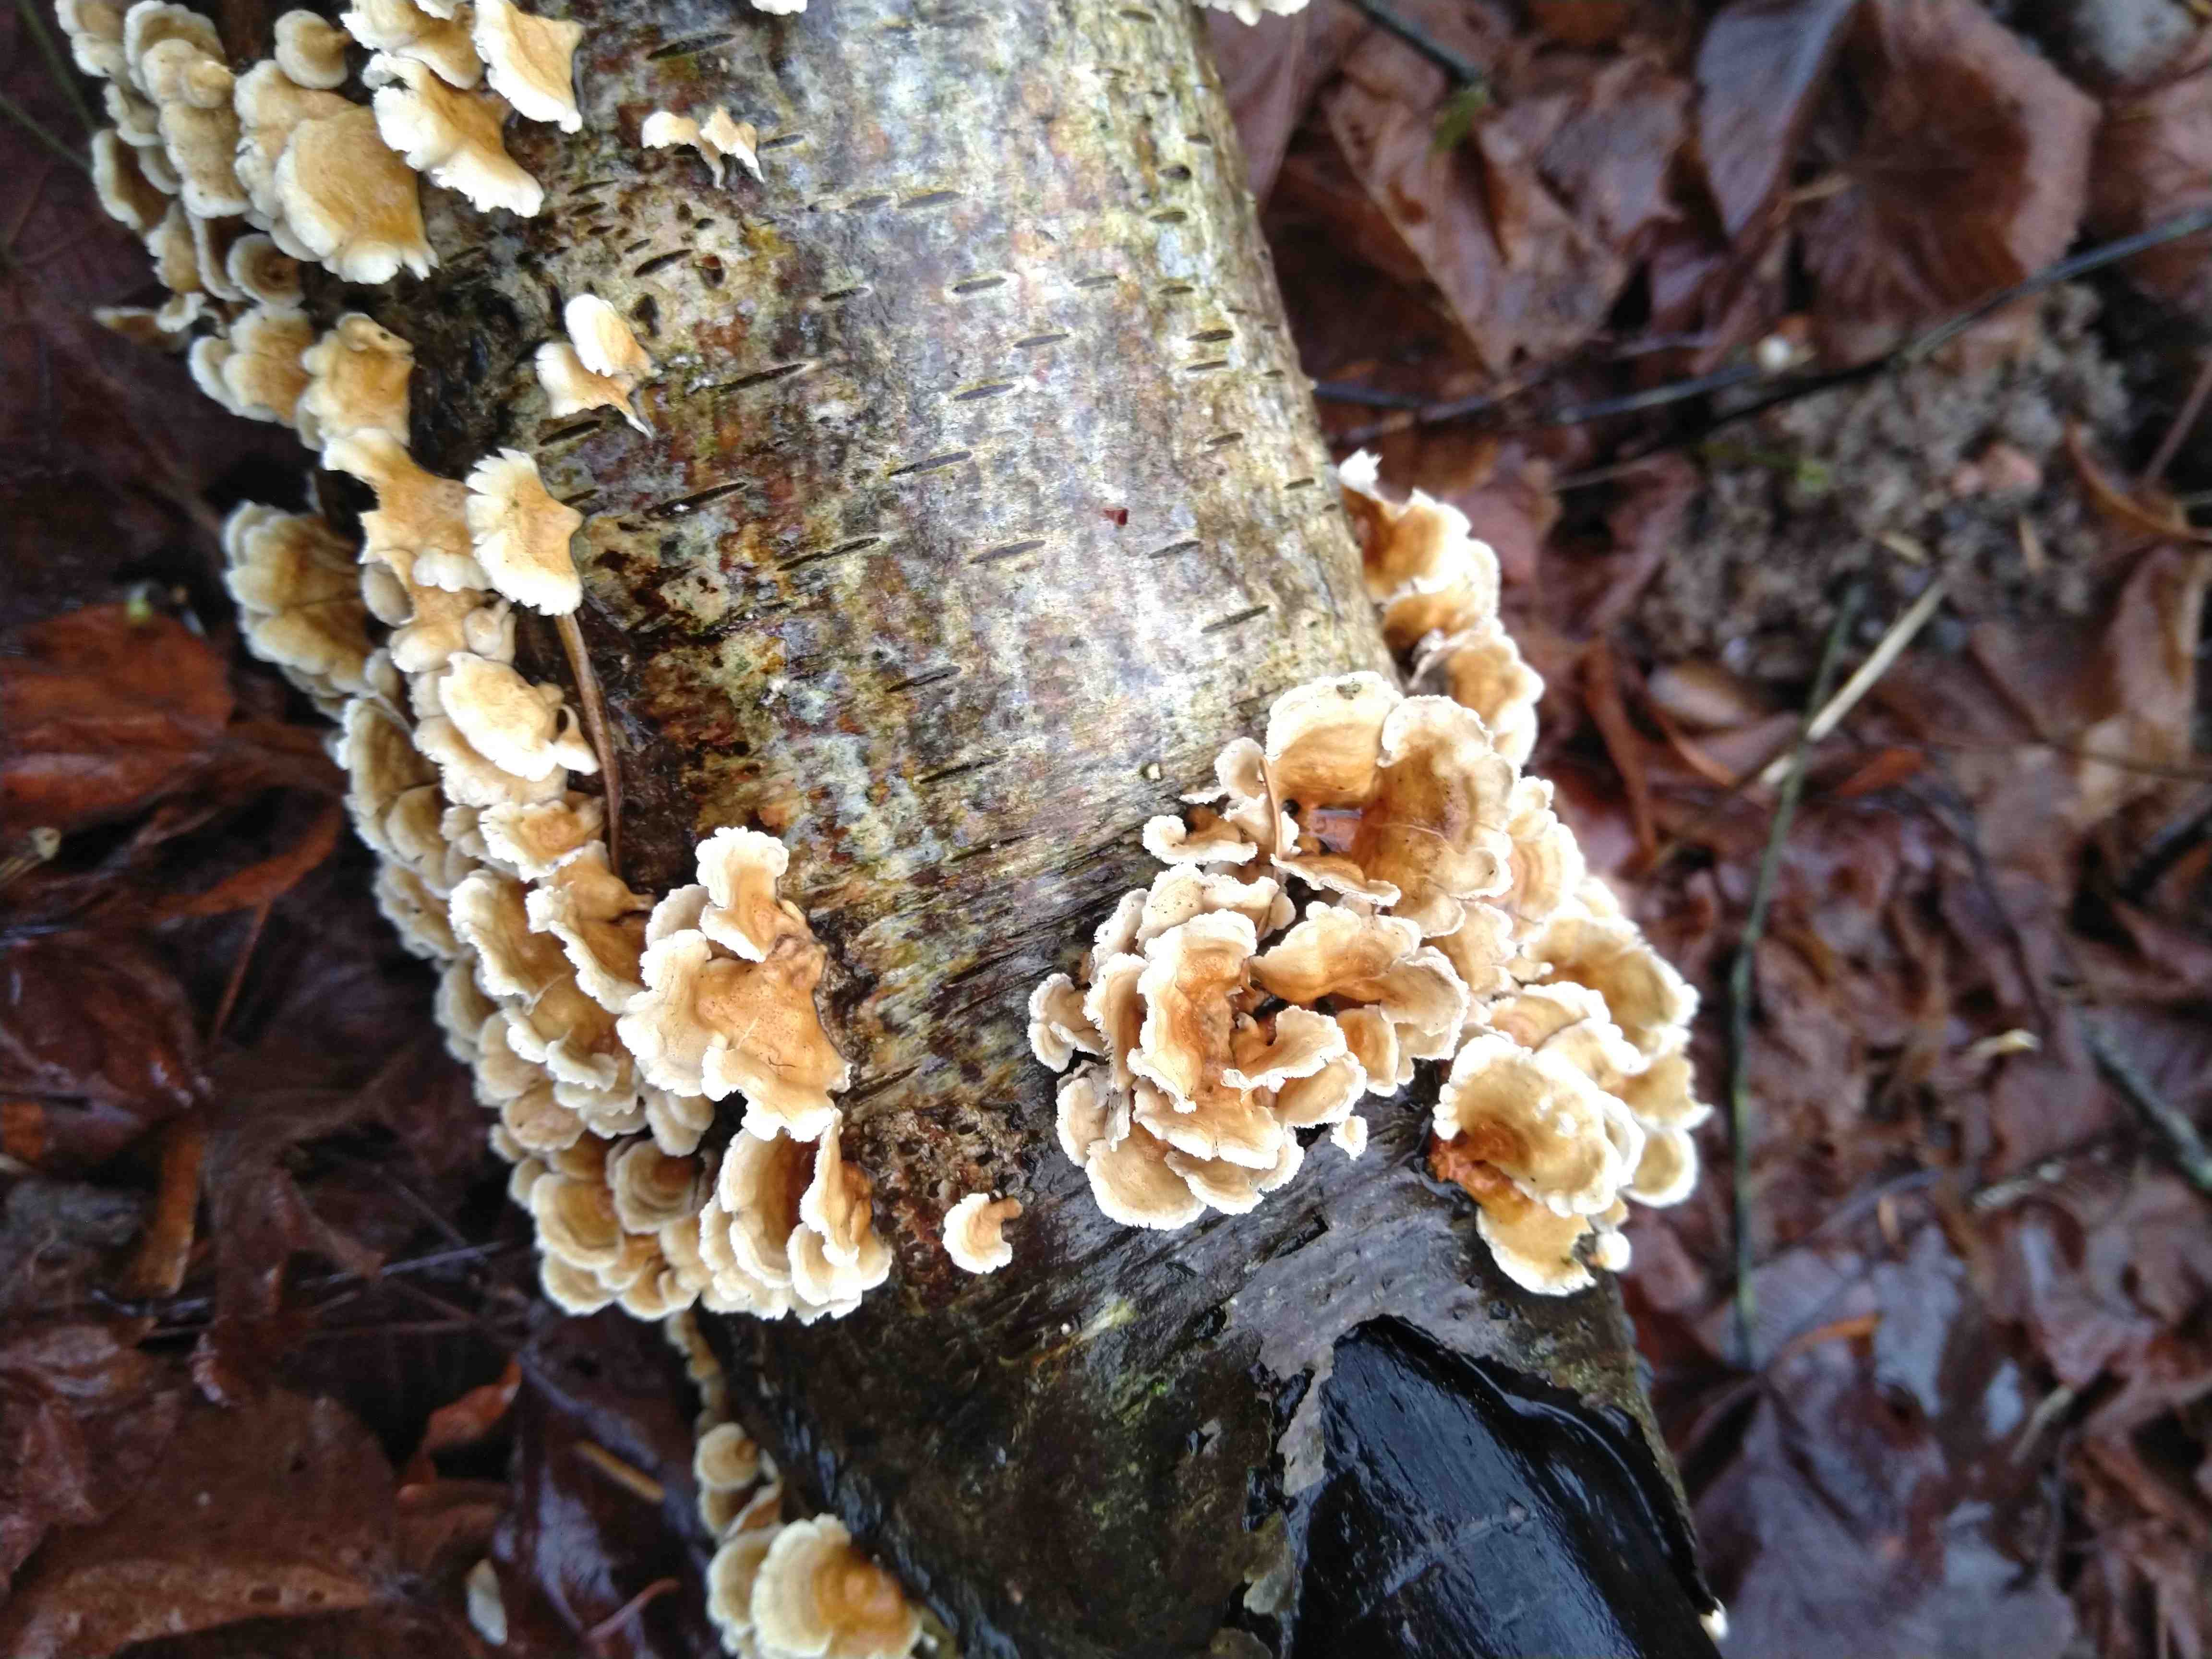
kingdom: Fungi
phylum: Basidiomycota
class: Agaricomycetes
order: Amylocorticiales
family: Amylocorticiaceae
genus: Plicaturopsis
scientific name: Plicaturopsis crispa
